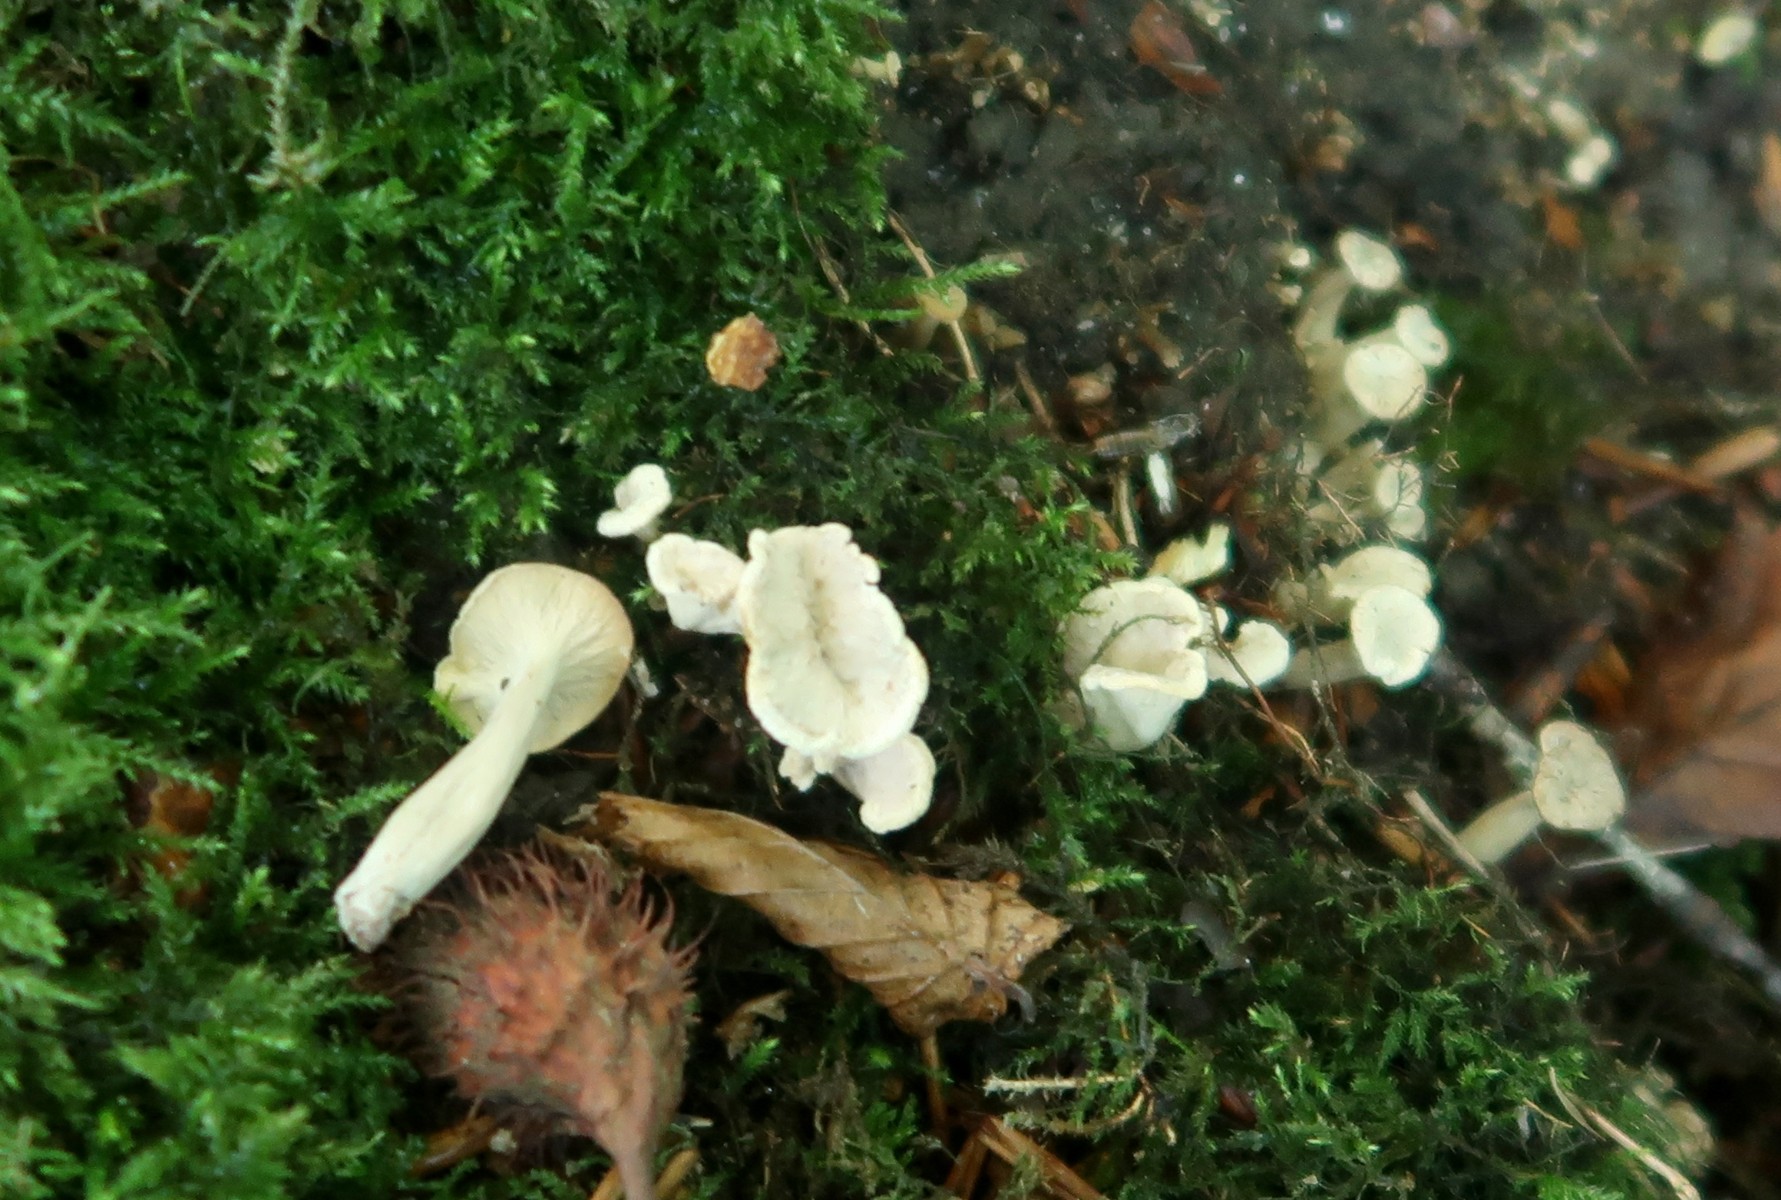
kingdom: Fungi
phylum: Basidiomycota
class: Agaricomycetes
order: Cantharellales
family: Hydnaceae
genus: Craterellus
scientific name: Craterellus undulatus
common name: liden kantarel
